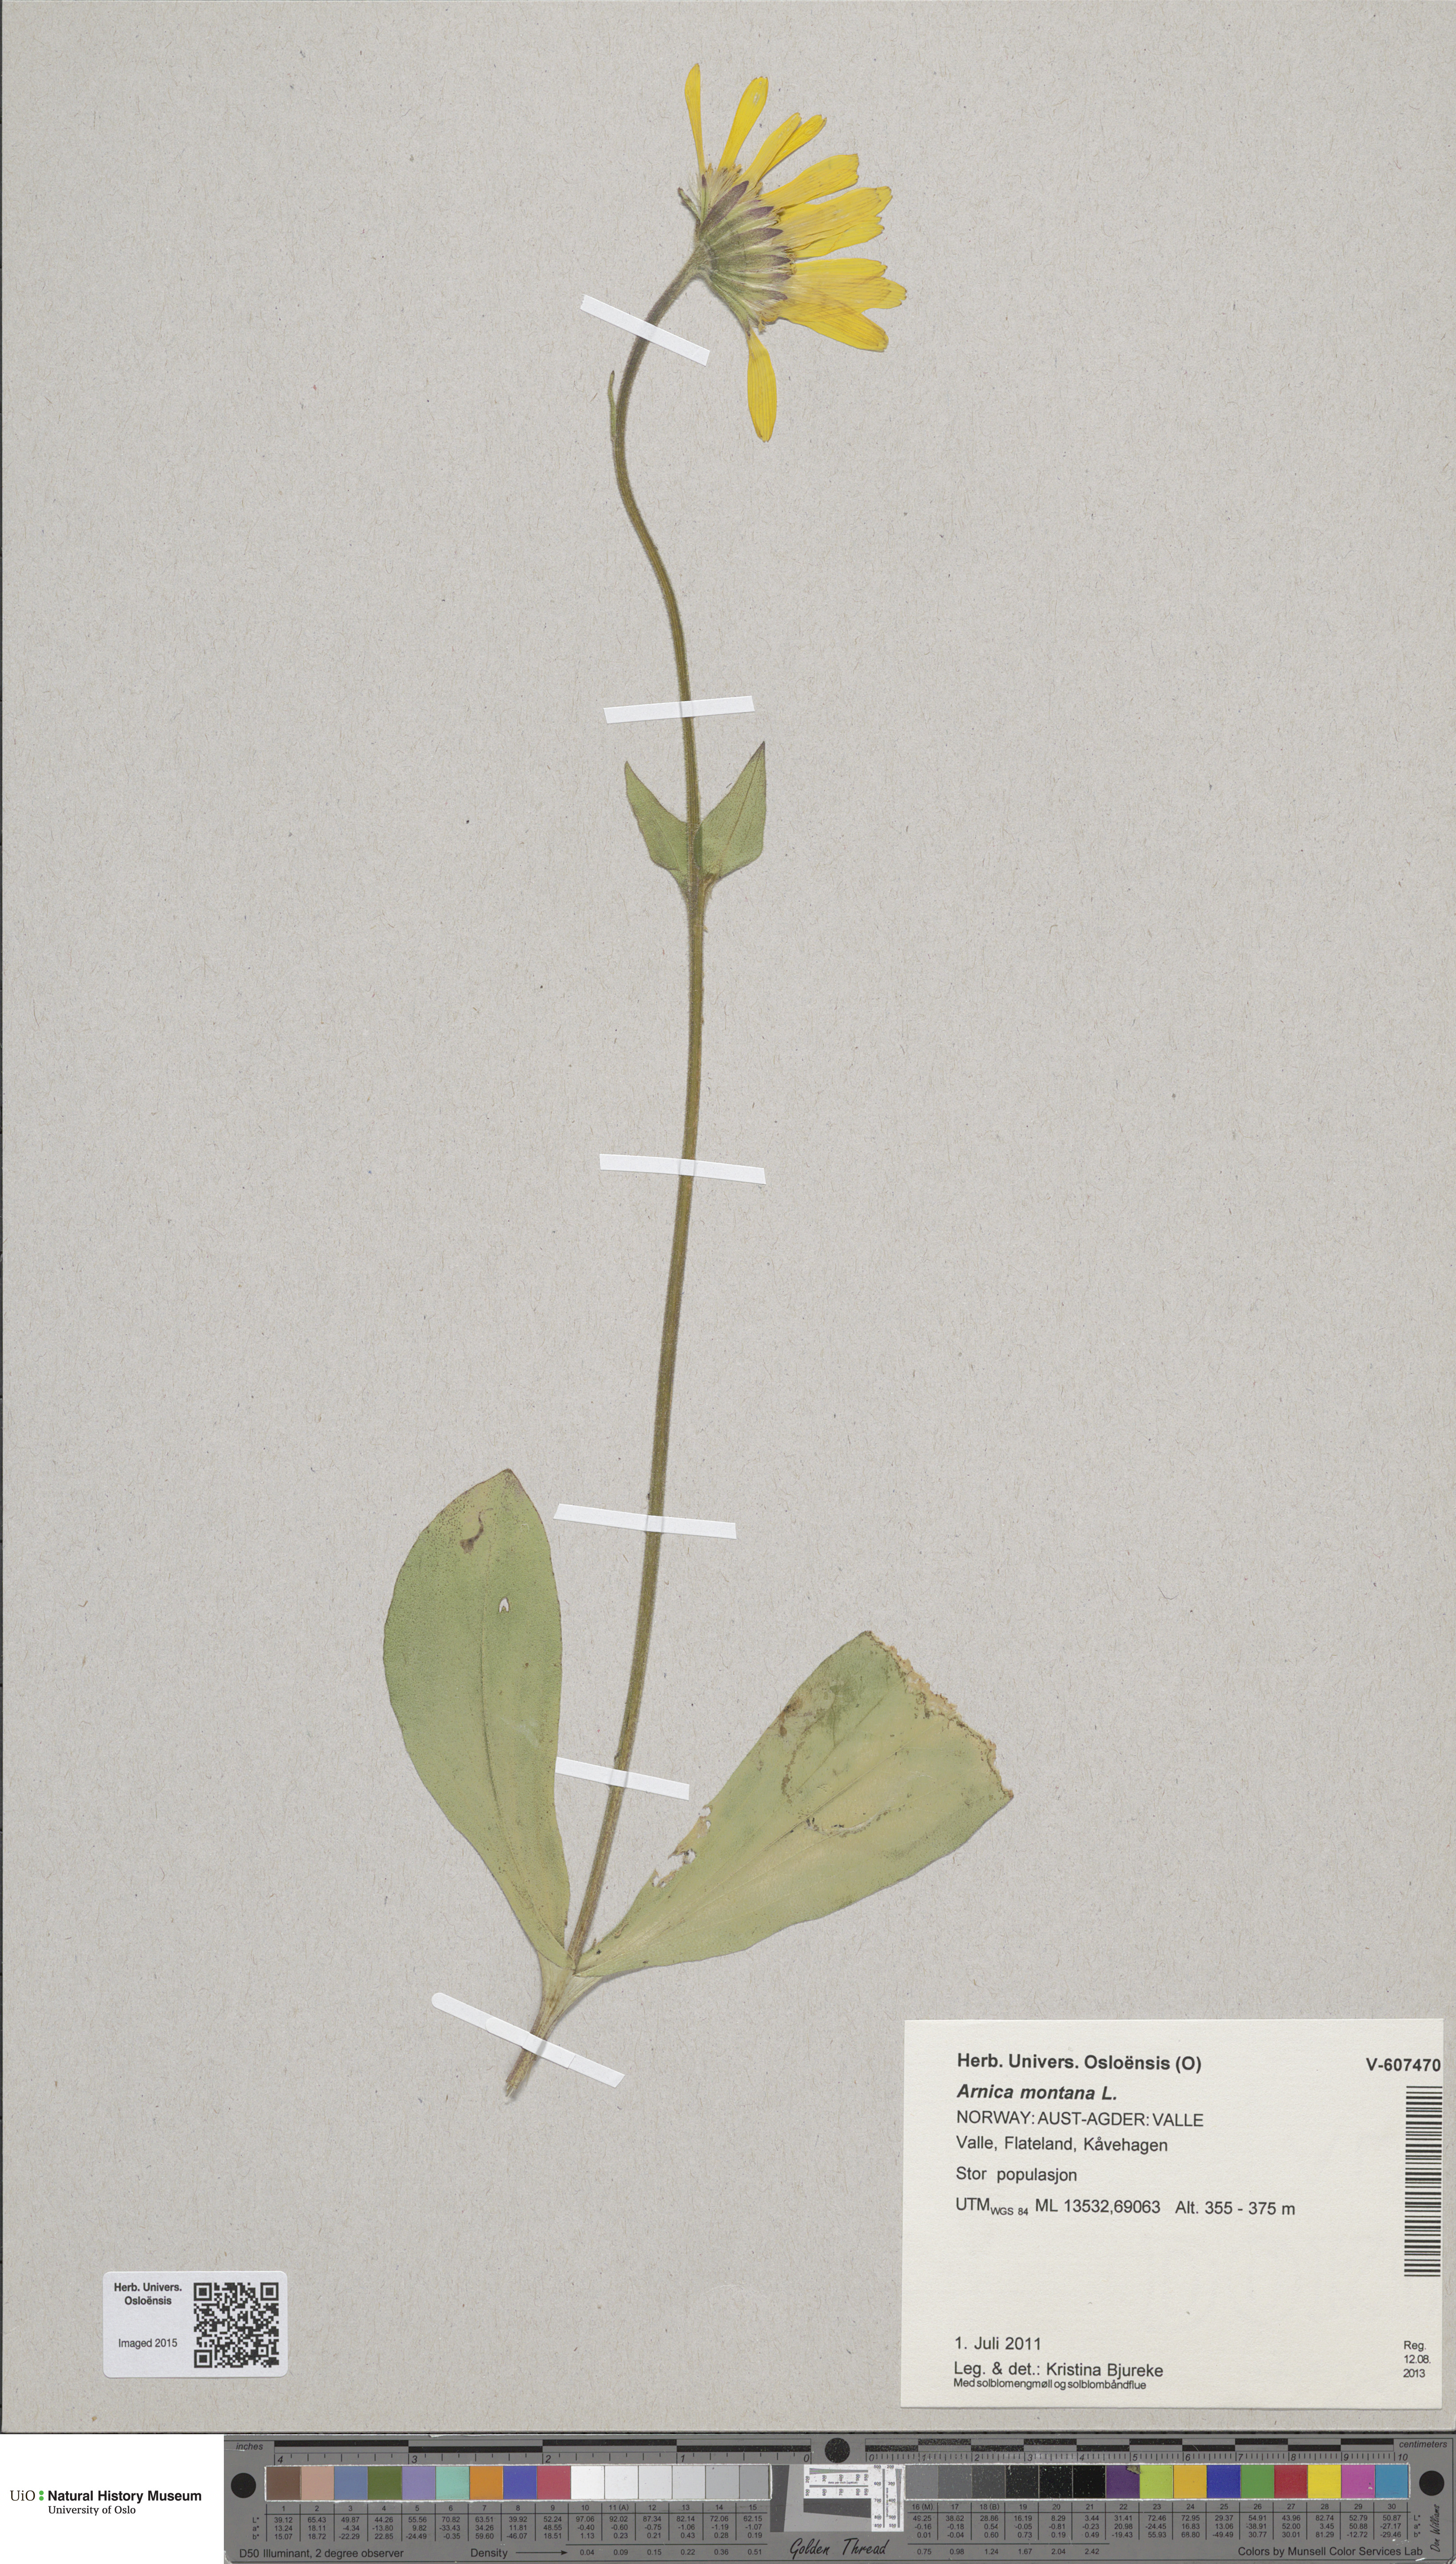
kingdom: Plantae
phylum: Tracheophyta
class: Magnoliopsida
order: Asterales
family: Asteraceae
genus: Arnica
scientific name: Arnica montana
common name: Leopard's bane
